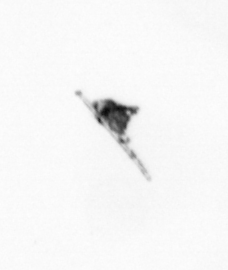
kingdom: Animalia
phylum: Arthropoda
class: Copepoda
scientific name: Copepoda
